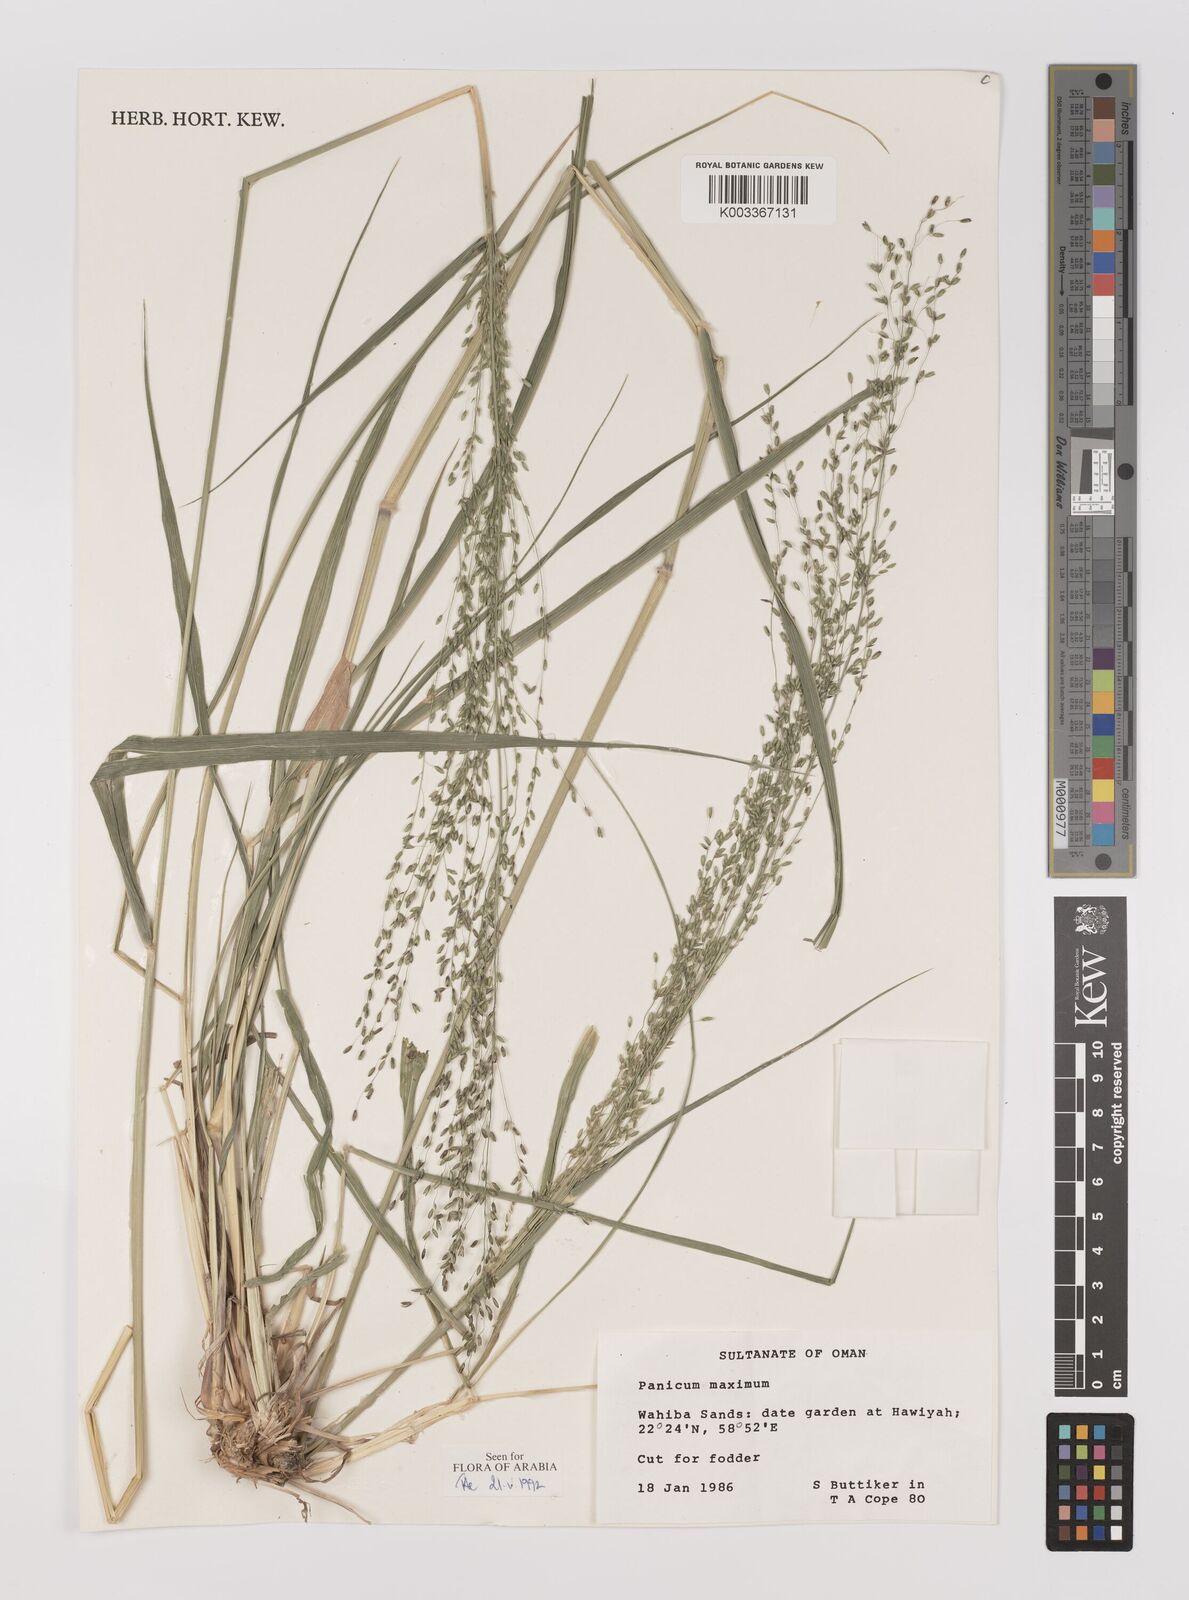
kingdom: Plantae
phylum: Tracheophyta
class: Liliopsida
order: Poales
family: Poaceae
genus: Megathyrsus
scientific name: Megathyrsus maximus
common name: Guineagrass
